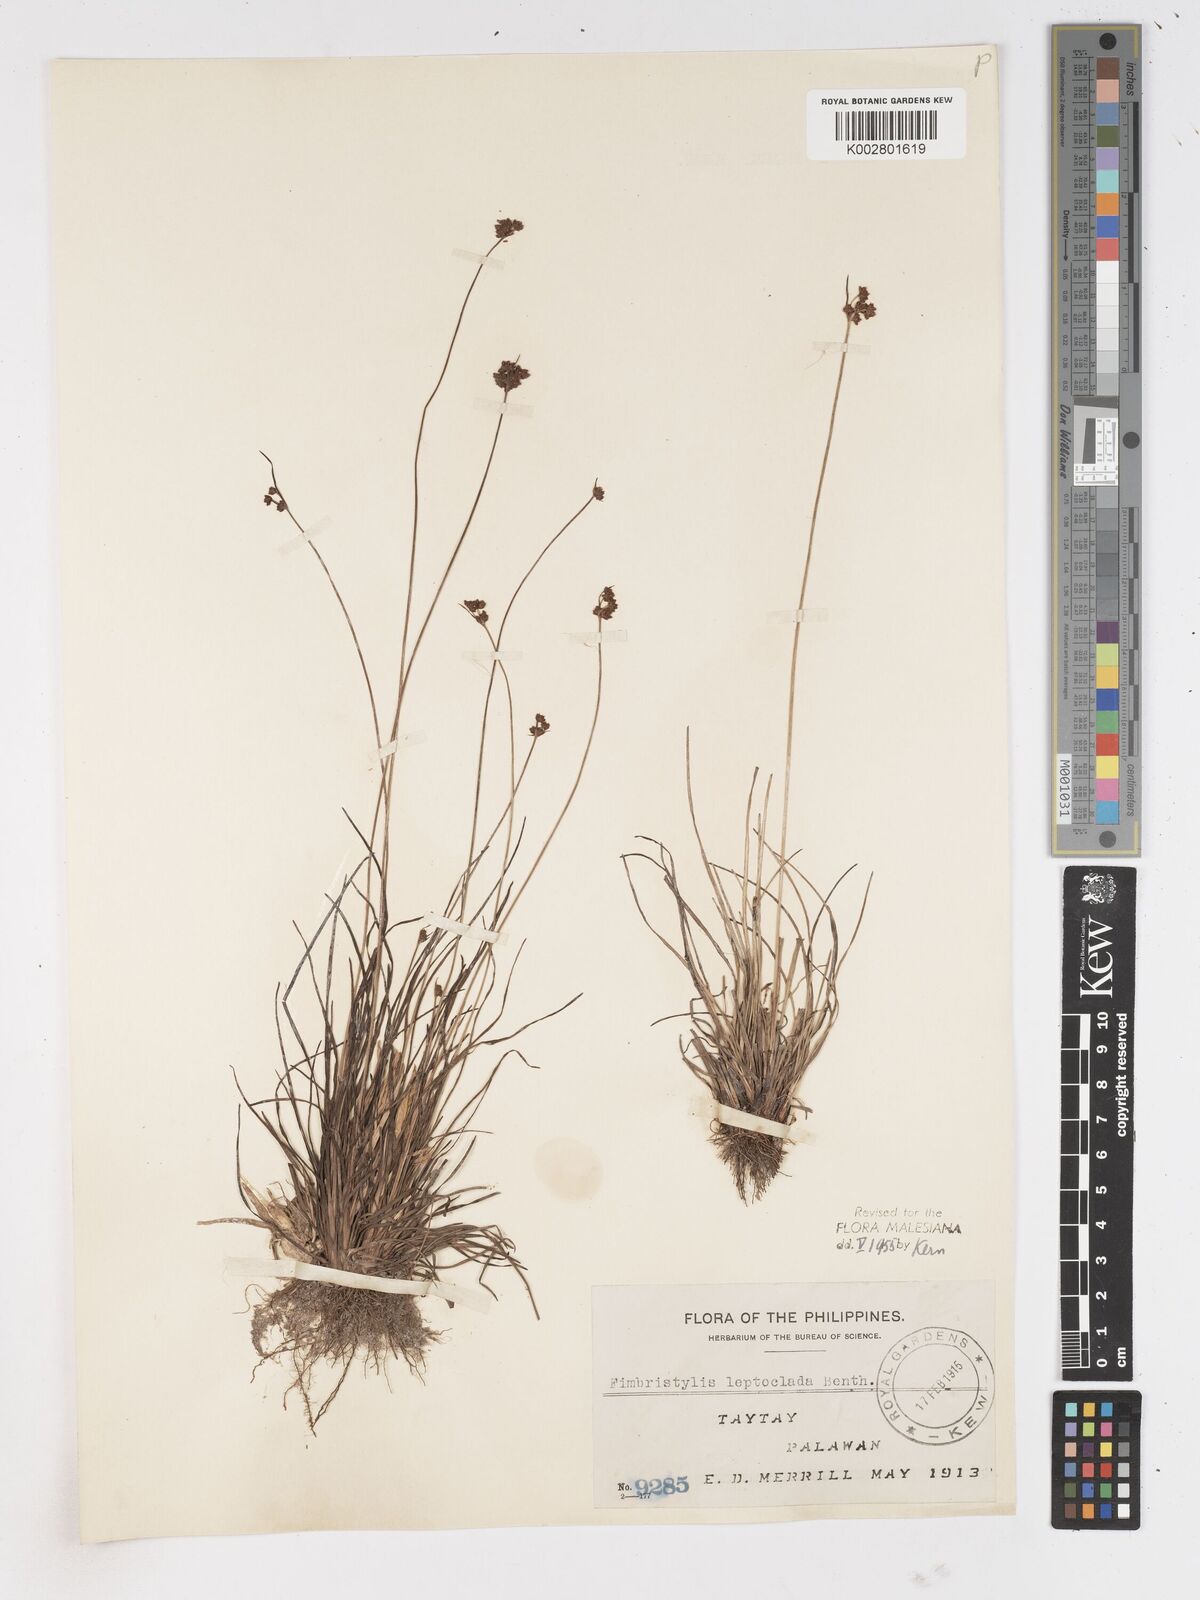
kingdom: Plantae
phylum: Tracheophyta
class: Liliopsida
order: Poales
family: Cyperaceae
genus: Fimbristylis
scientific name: Fimbristylis leptoclada
